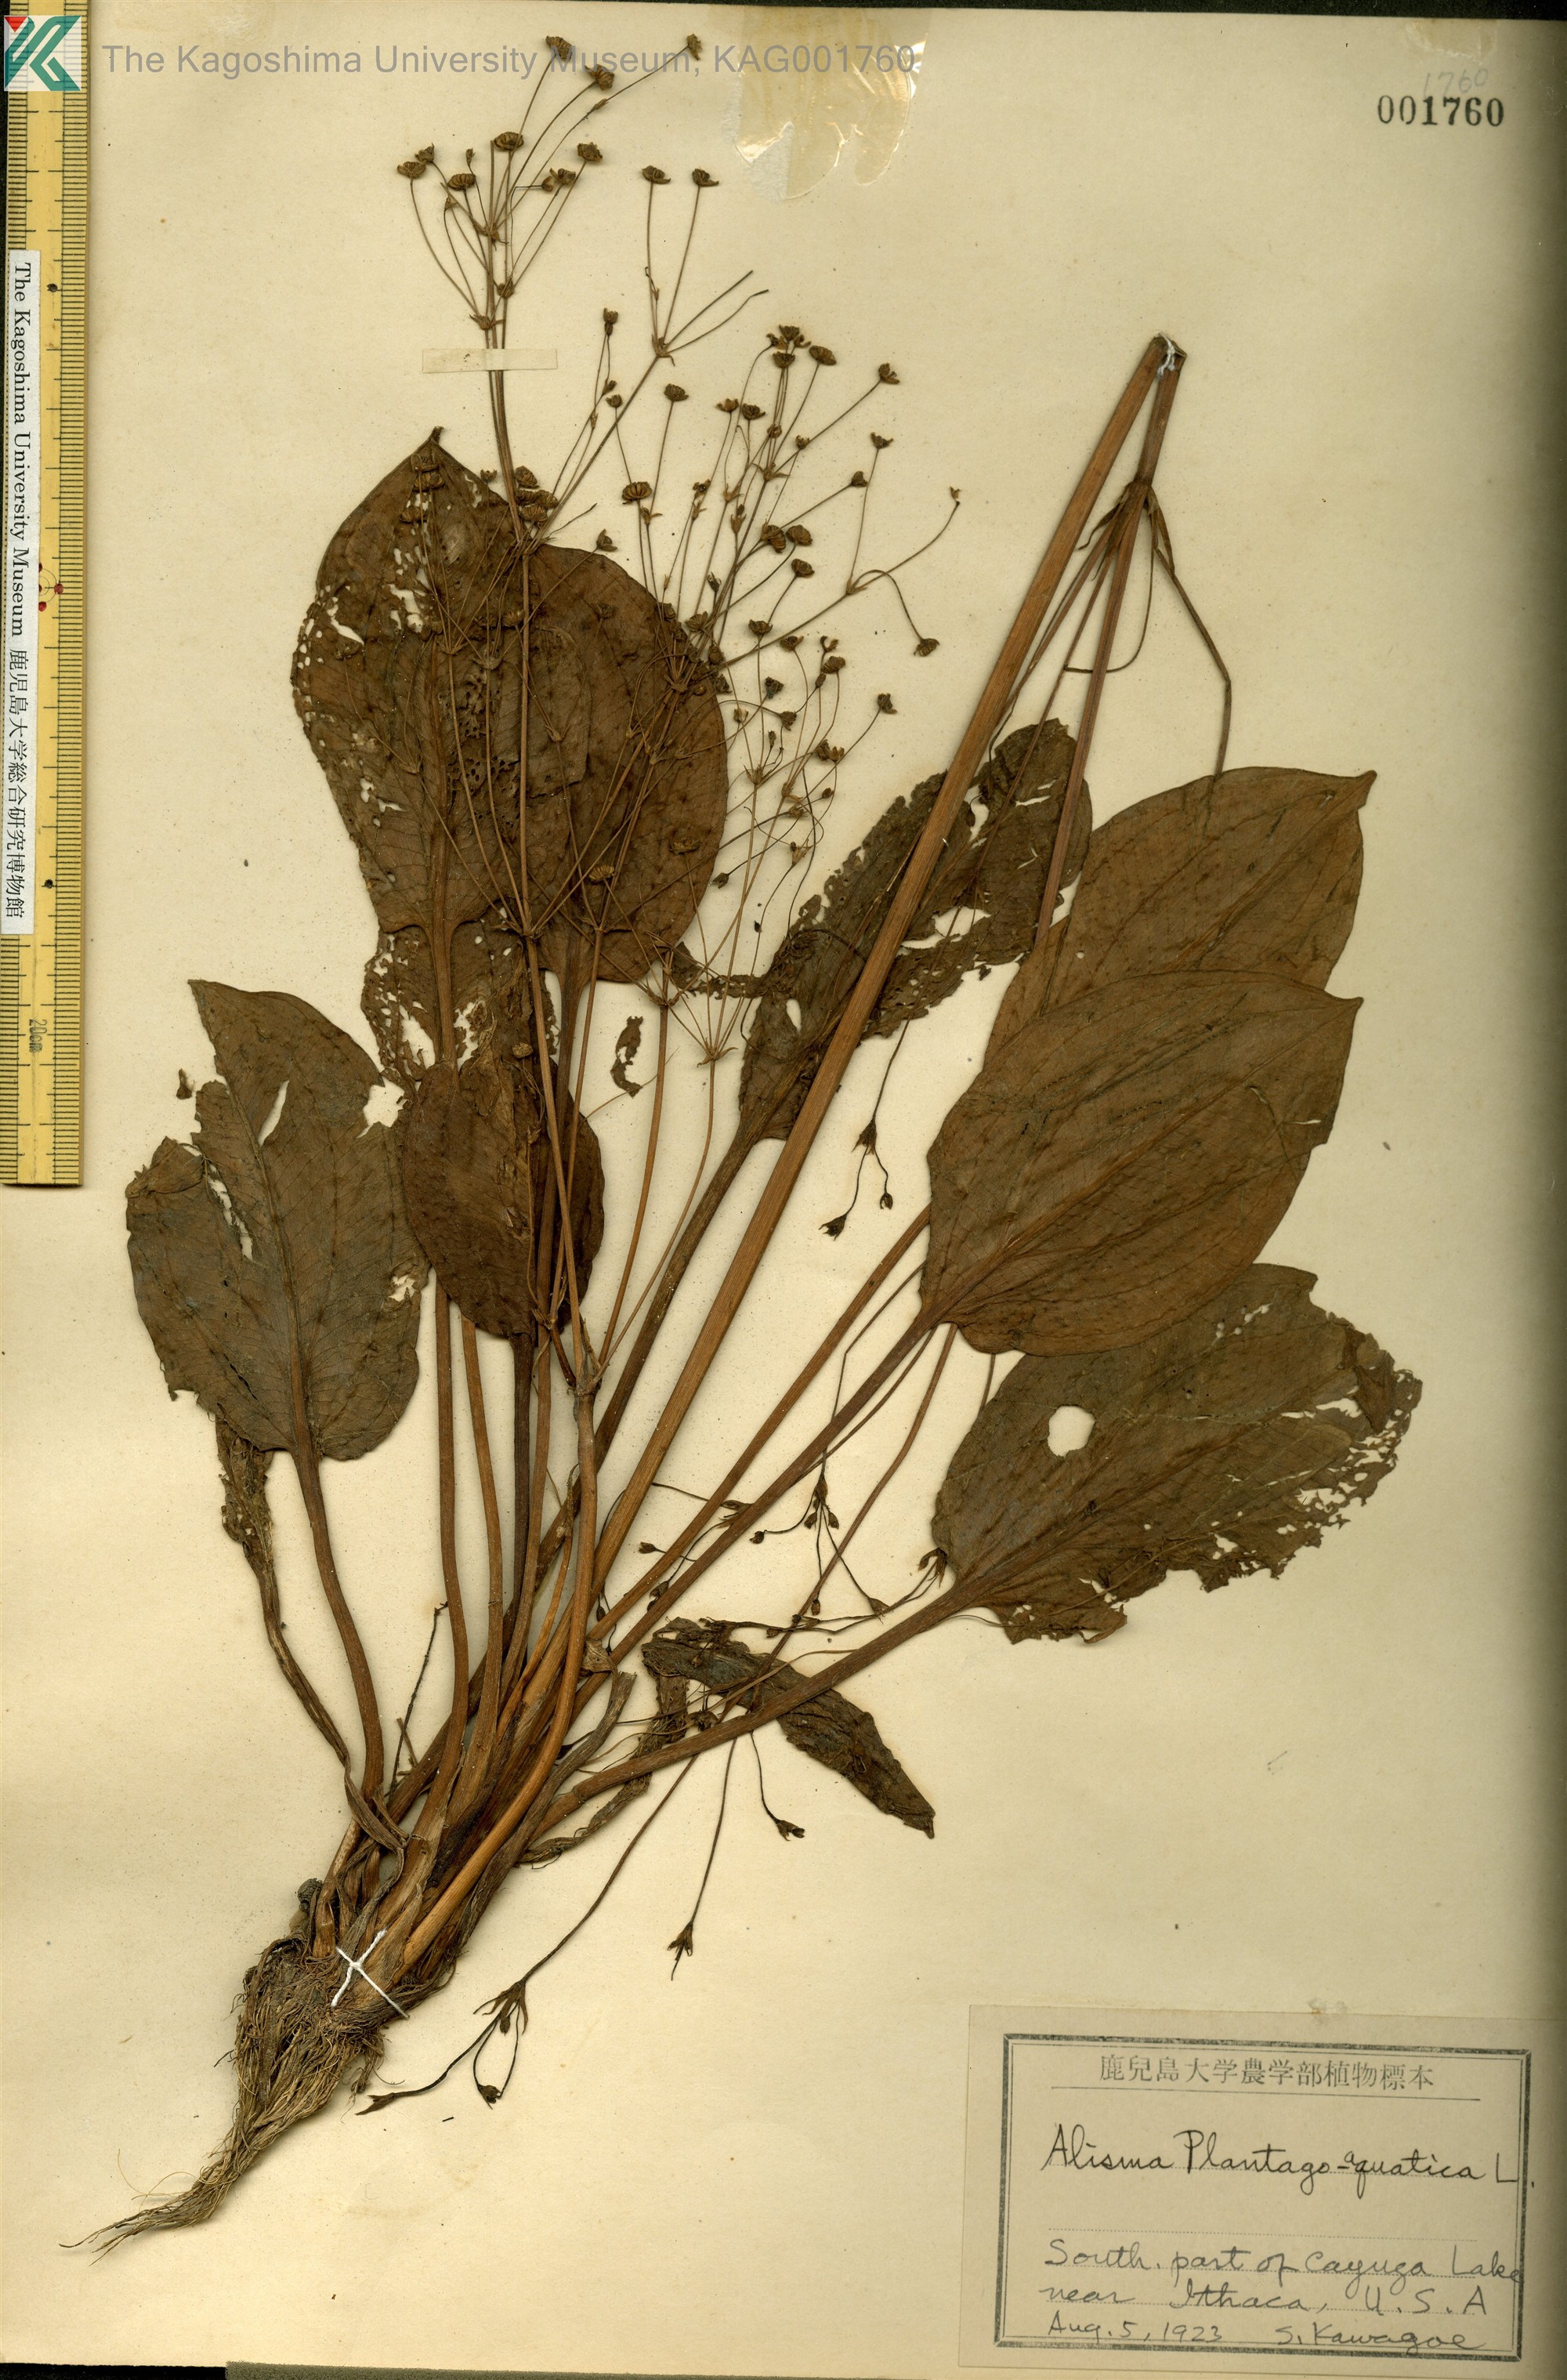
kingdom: Plantae
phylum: Tracheophyta
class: Liliopsida
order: Alismatales
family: Alismataceae
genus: Alisma
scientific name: Alisma plantago-aquatica
